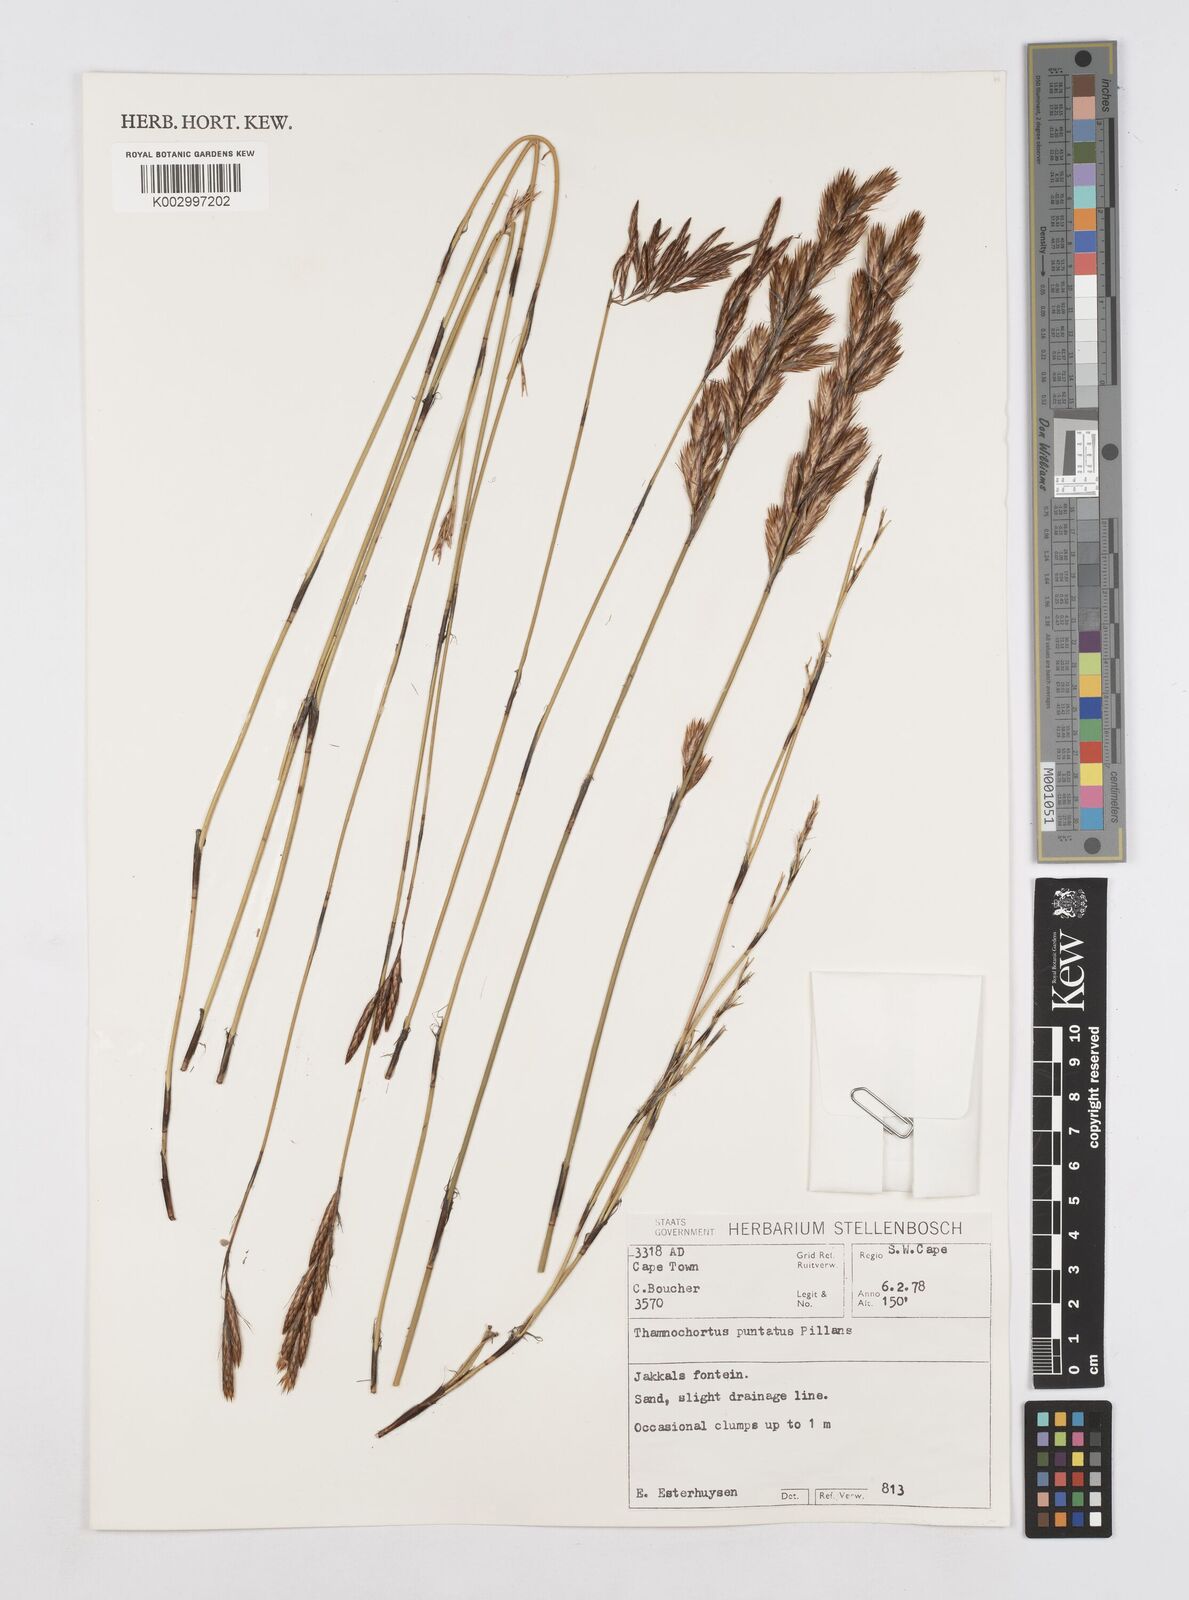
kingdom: Plantae
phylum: Tracheophyta
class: Liliopsida
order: Poales
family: Restionaceae
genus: Thamnochortus
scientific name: Thamnochortus punctatus
